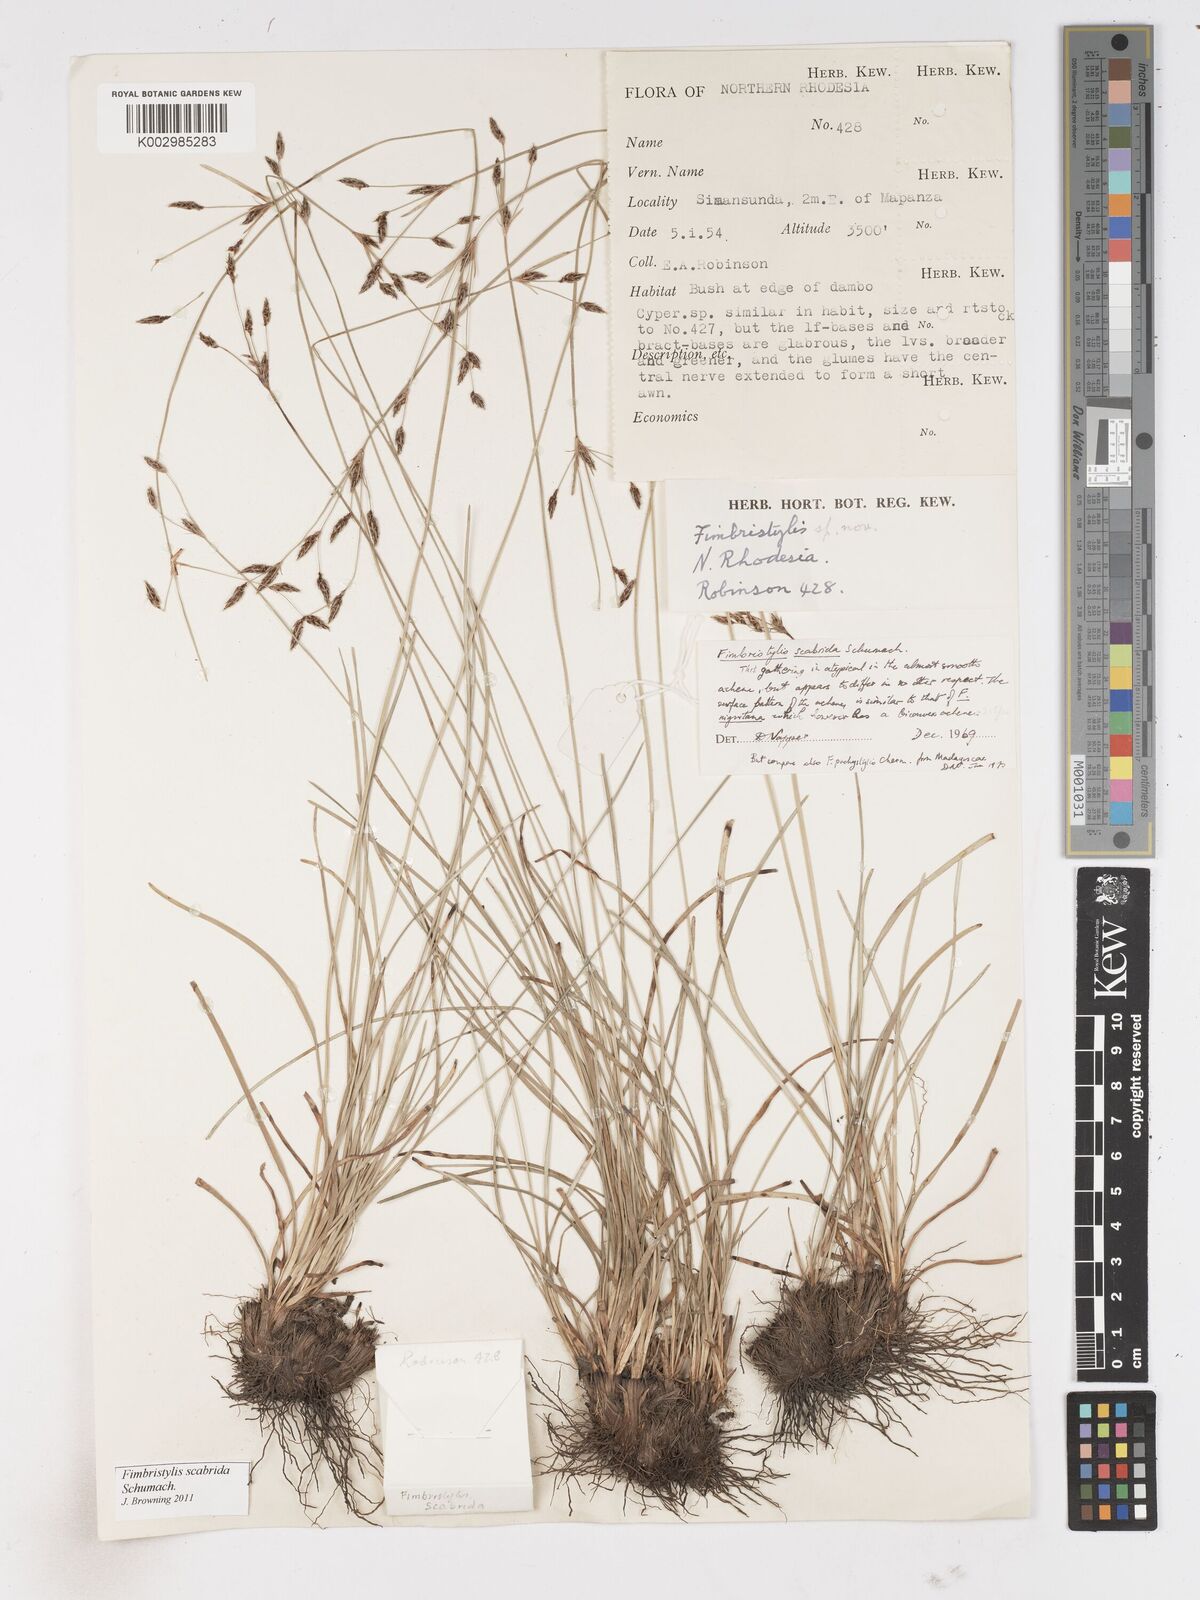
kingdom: Plantae
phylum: Tracheophyta
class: Liliopsida
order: Poales
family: Cyperaceae
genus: Fimbristylis
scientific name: Fimbristylis scabrida
